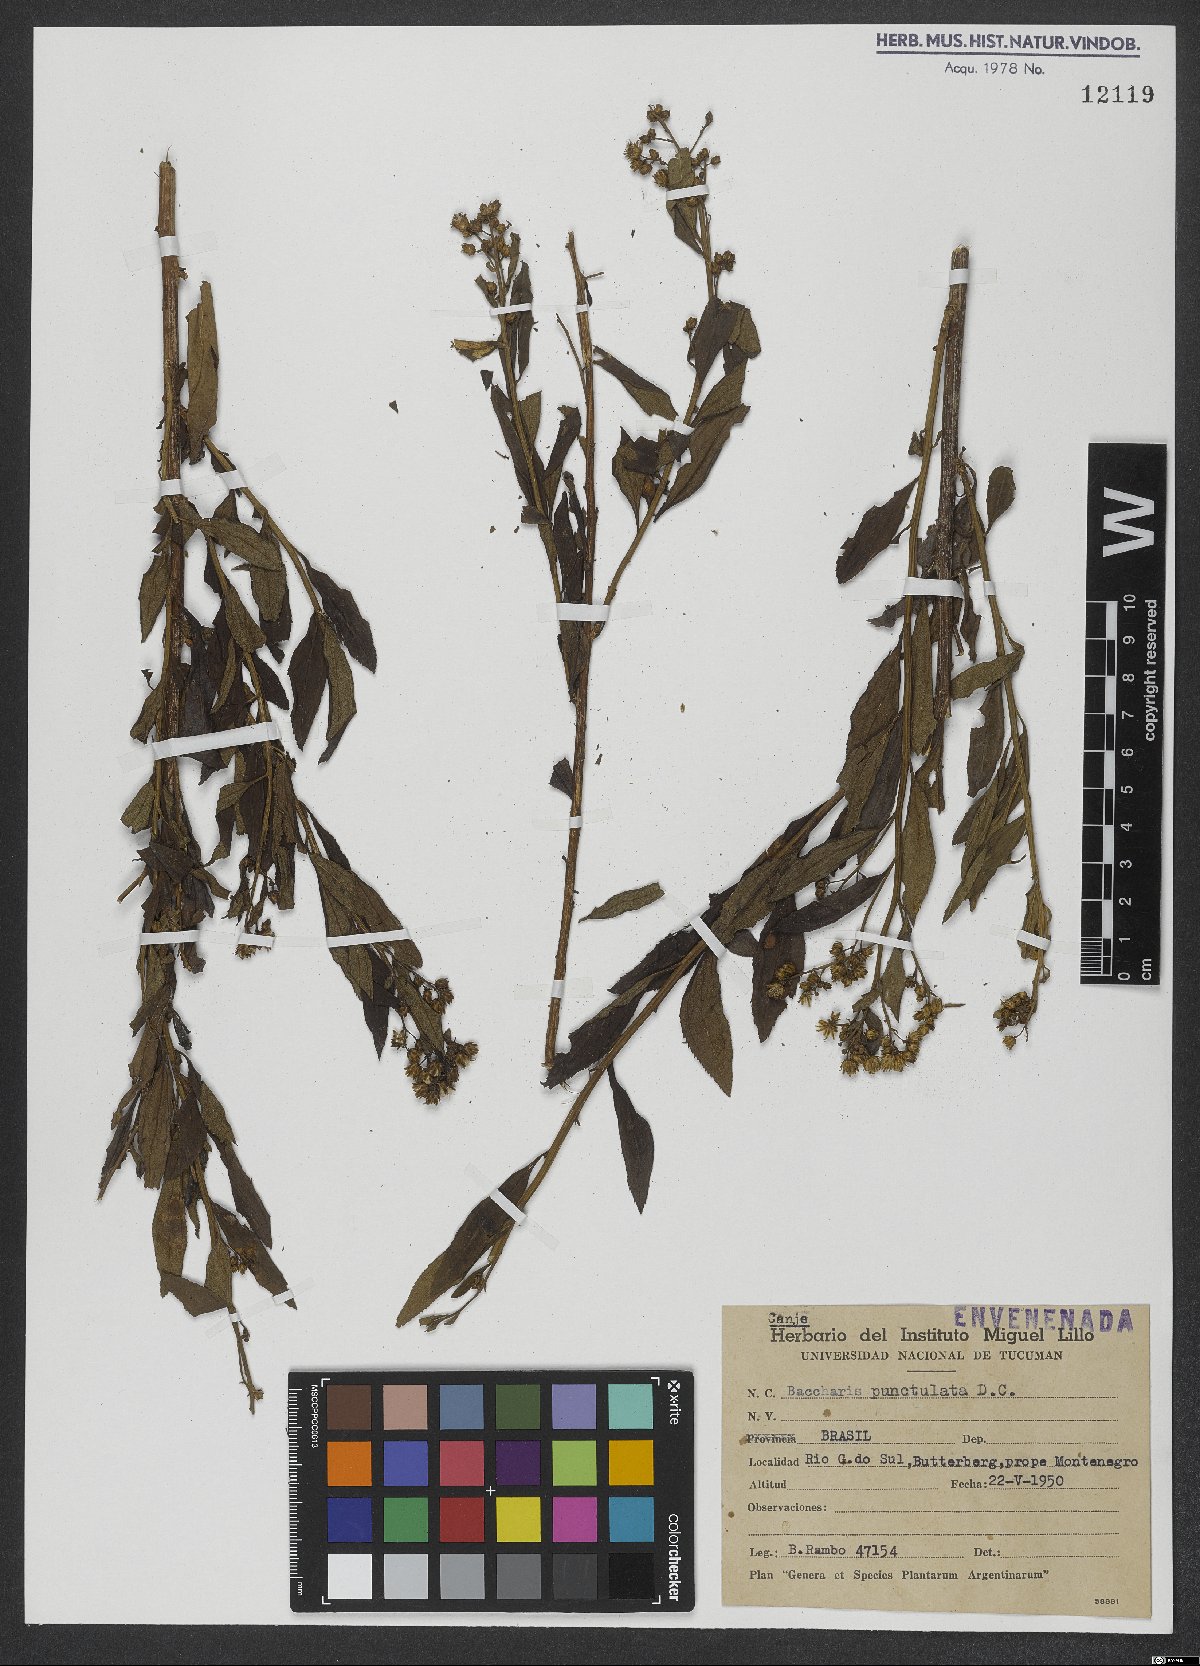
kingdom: Plantae
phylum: Tracheophyta
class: Magnoliopsida
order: Asterales
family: Asteraceae
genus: Baccharis
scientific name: Baccharis punctulata
